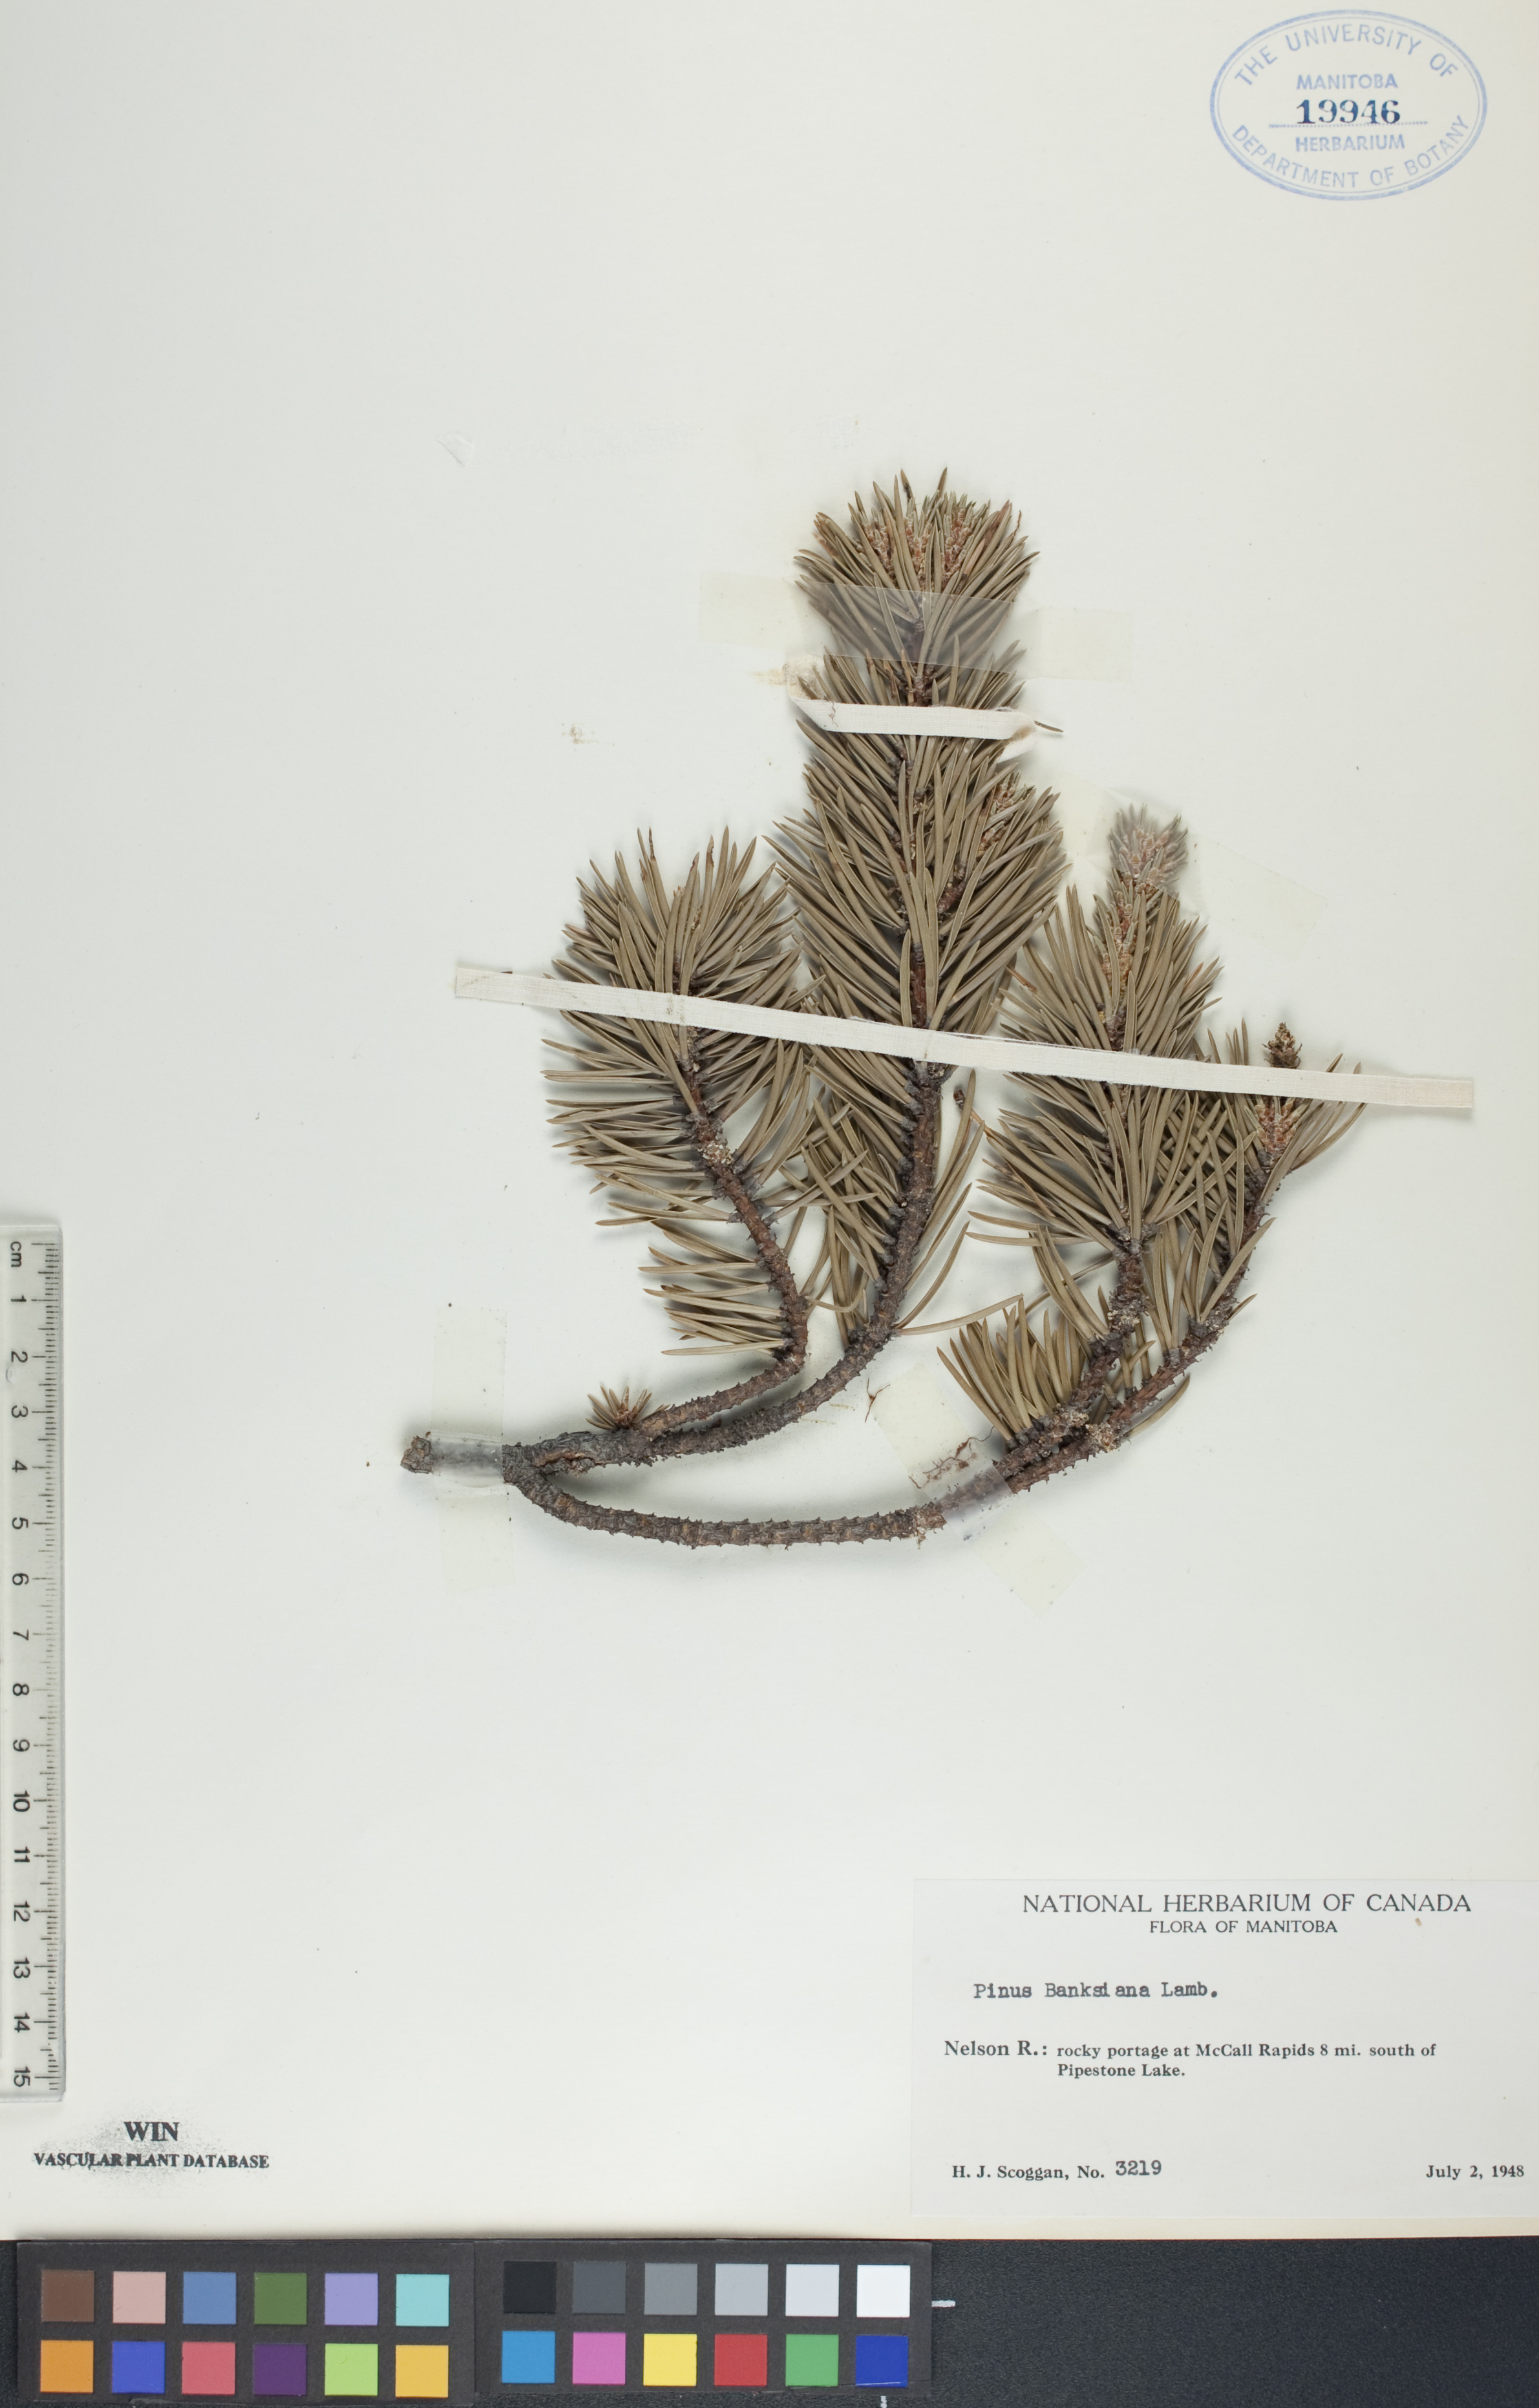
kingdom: Plantae
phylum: Tracheophyta
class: Pinopsida
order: Pinales
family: Pinaceae
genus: Pinus
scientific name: Pinus banksiana
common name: Jack pine
